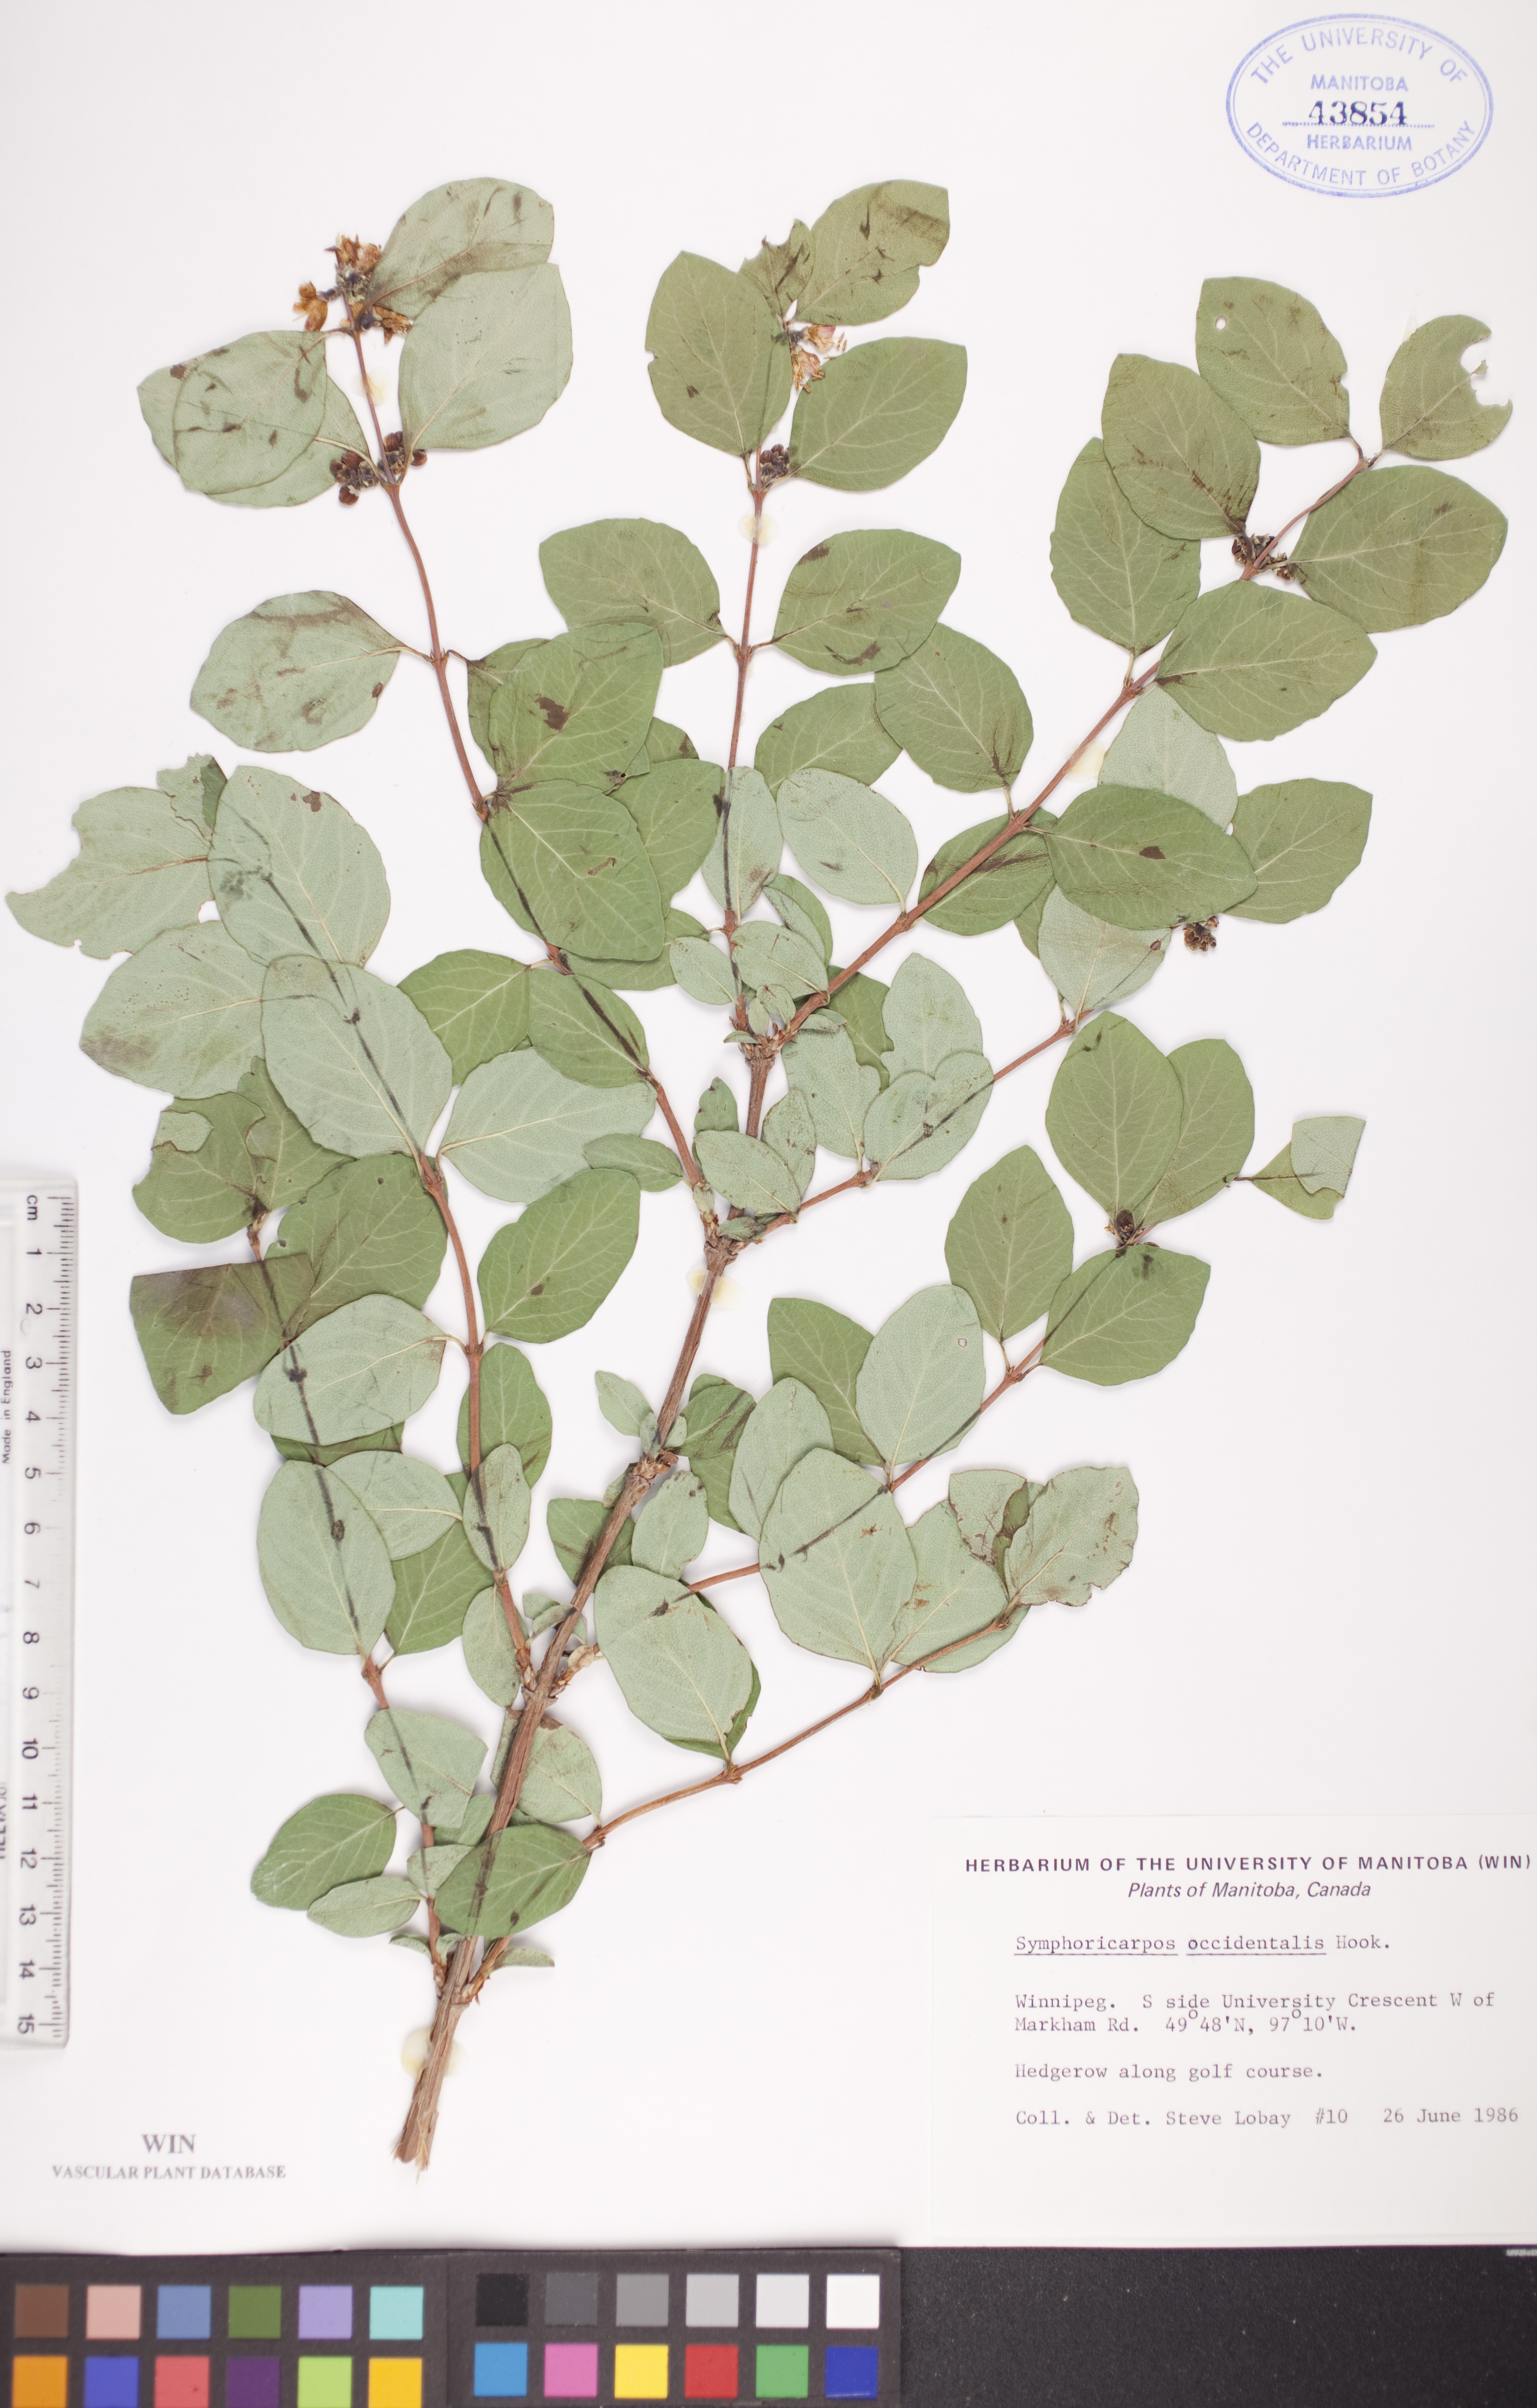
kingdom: Plantae
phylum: Tracheophyta
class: Magnoliopsida
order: Dipsacales
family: Caprifoliaceae
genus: Symphoricarpos
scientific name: Symphoricarpos occidentalis
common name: Wolfberry
